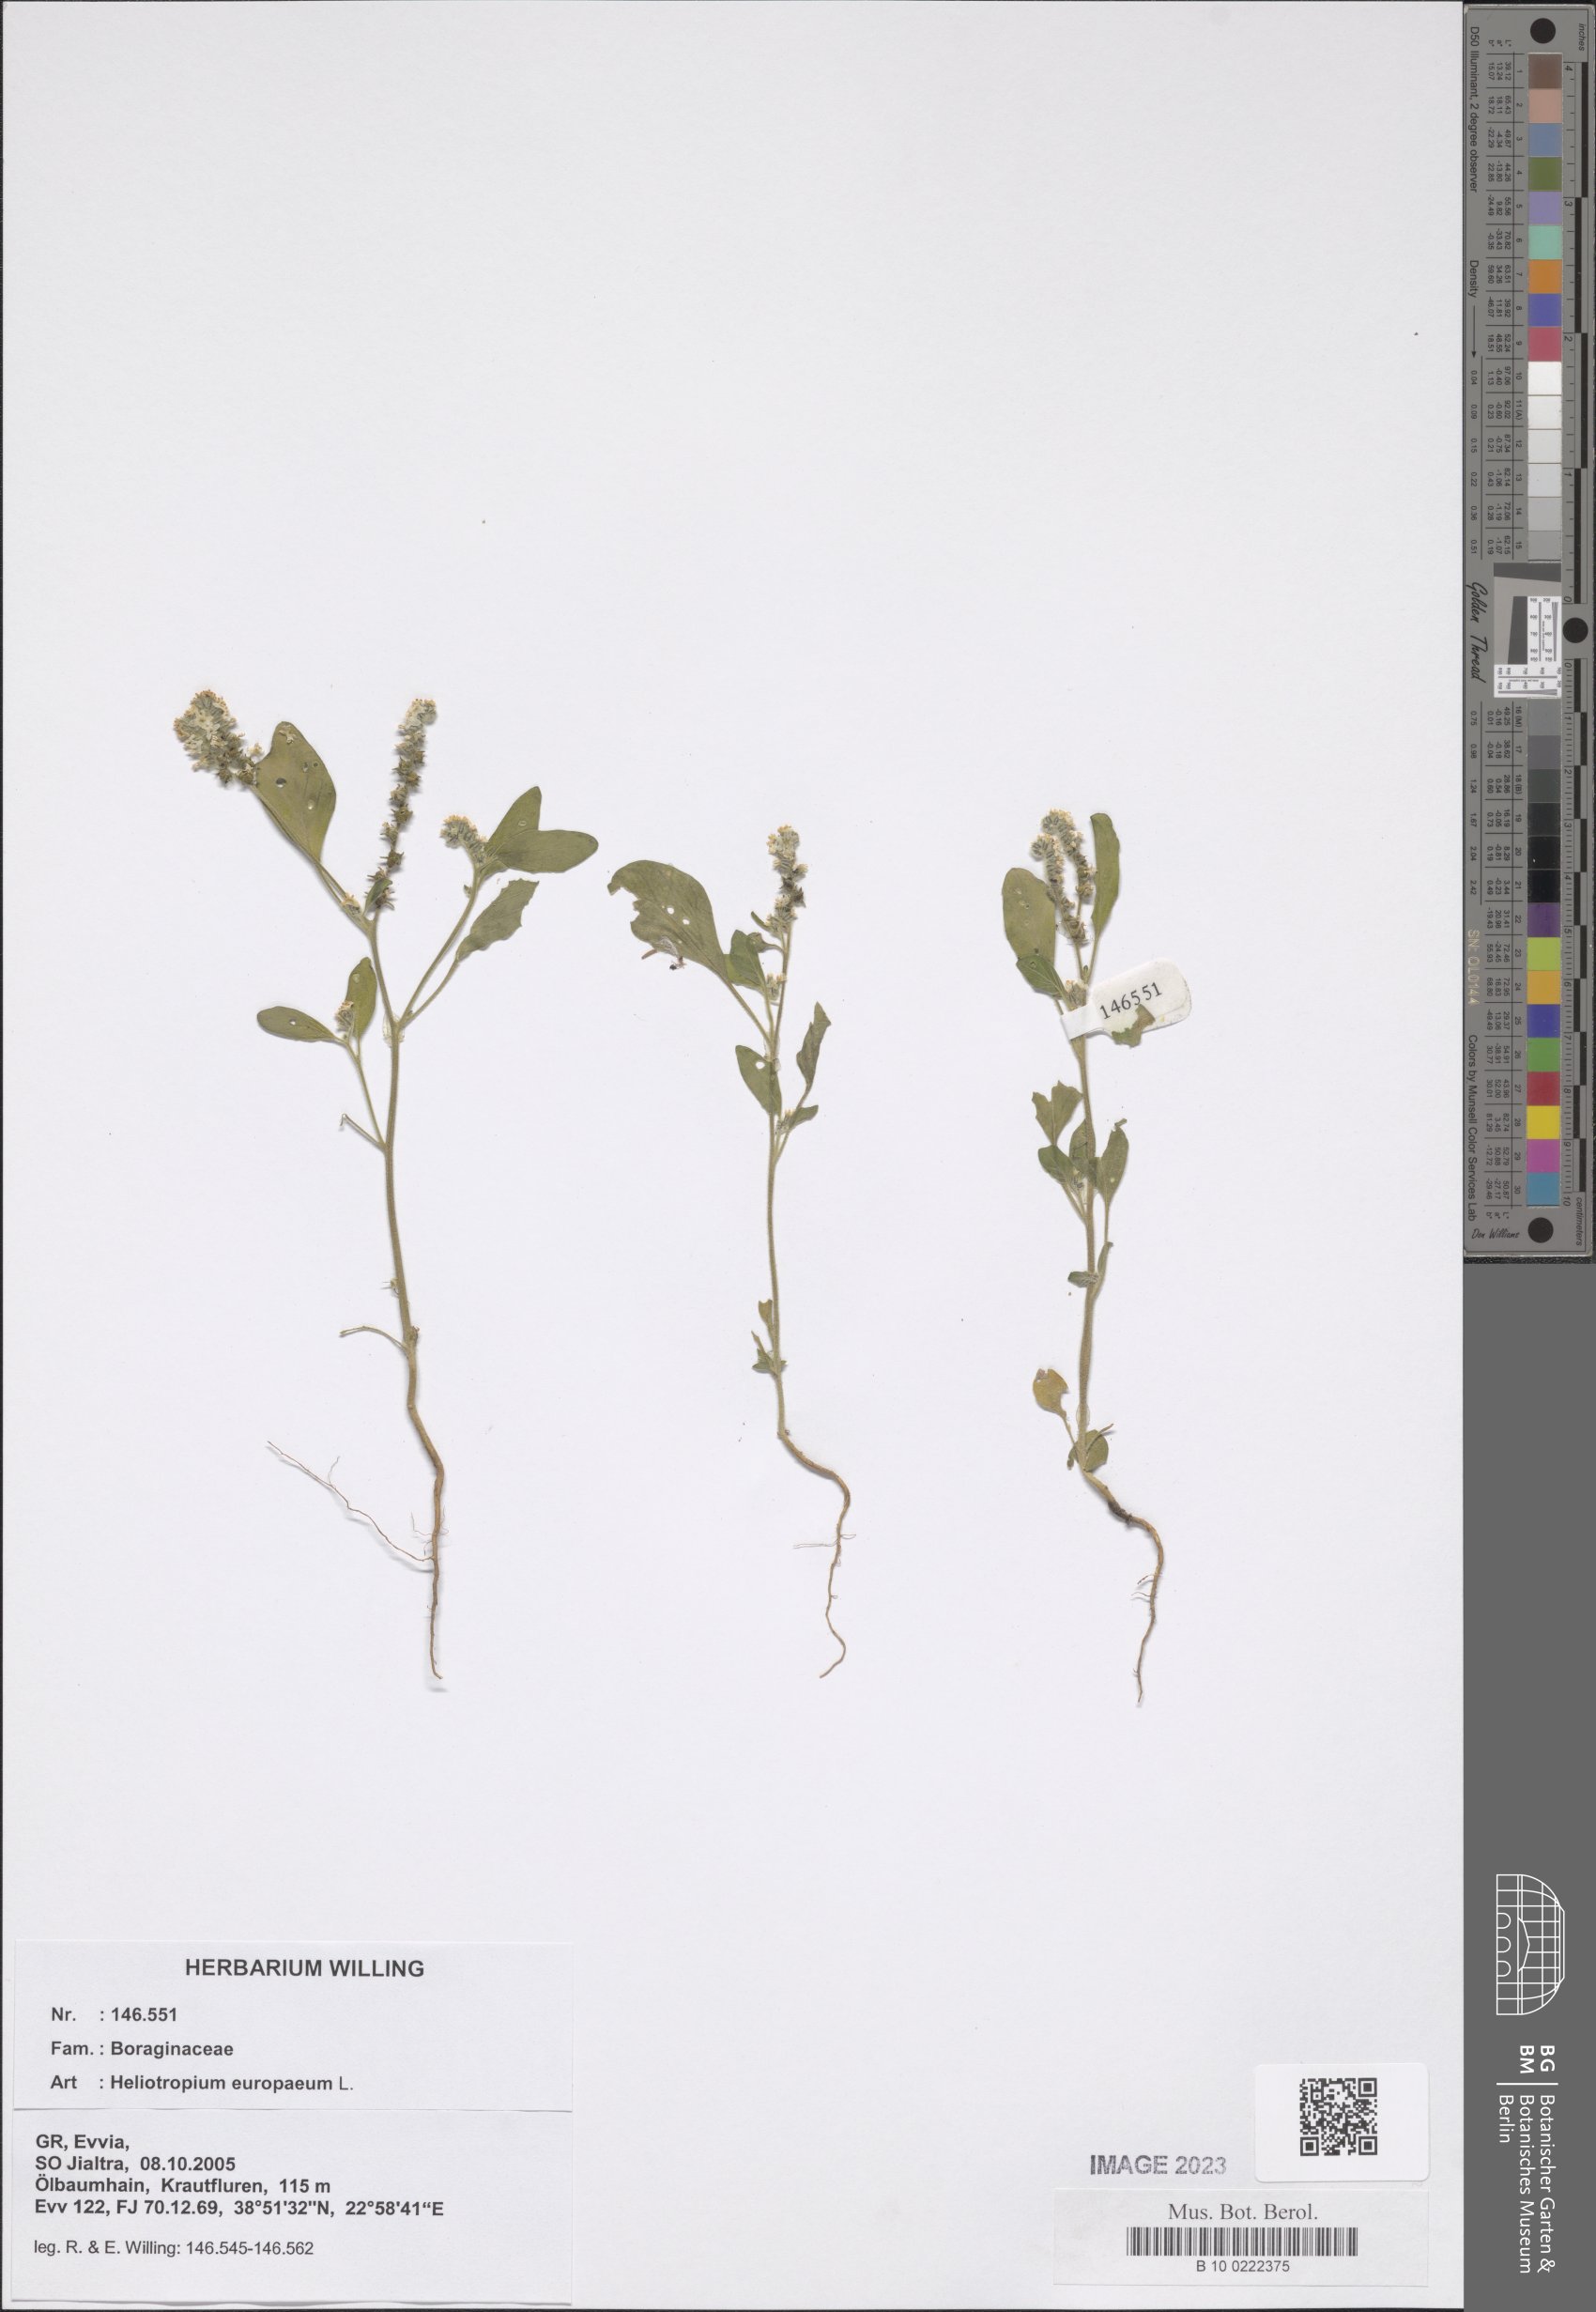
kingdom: Plantae
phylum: Tracheophyta
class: Magnoliopsida
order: Boraginales
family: Heliotropiaceae
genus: Heliotropium
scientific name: Heliotropium europaeum
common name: European heliotrope
